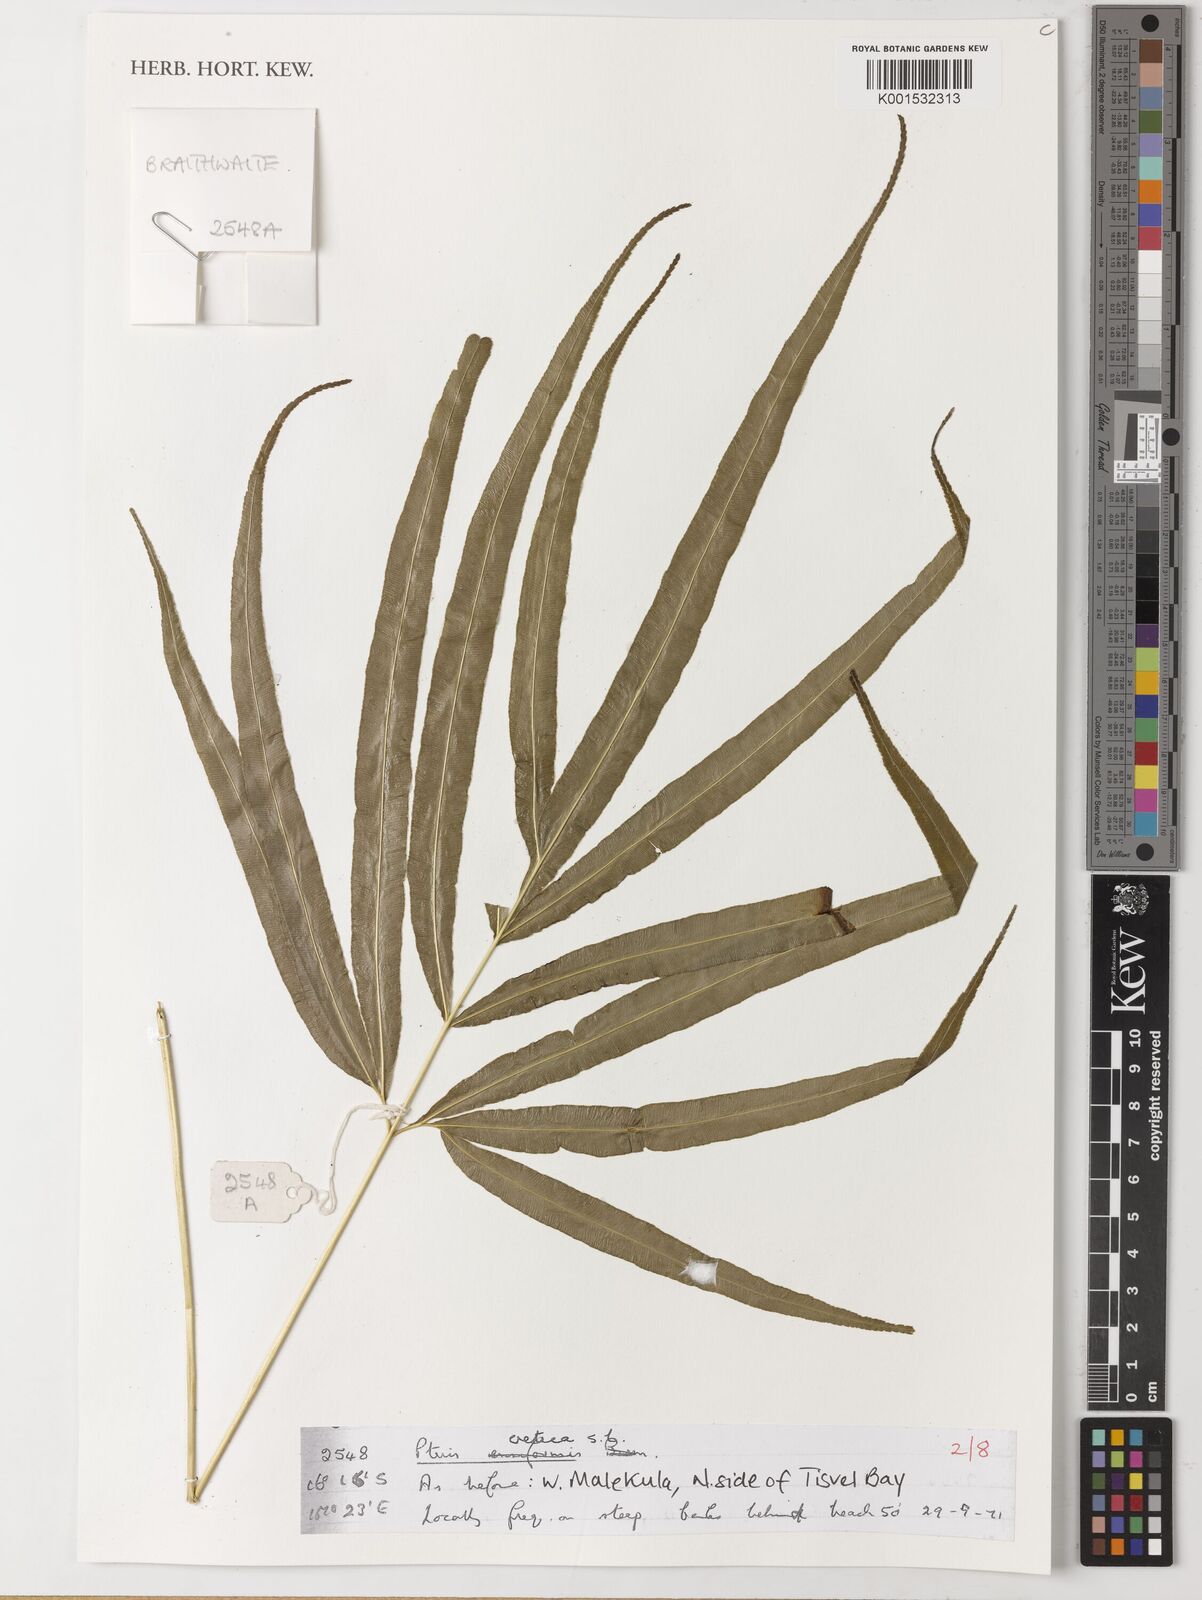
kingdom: Plantae
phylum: Tracheophyta
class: Polypodiopsida
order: Polypodiales
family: Pteridaceae
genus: Pteris
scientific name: Pteris cretica
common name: Ribbon fern
